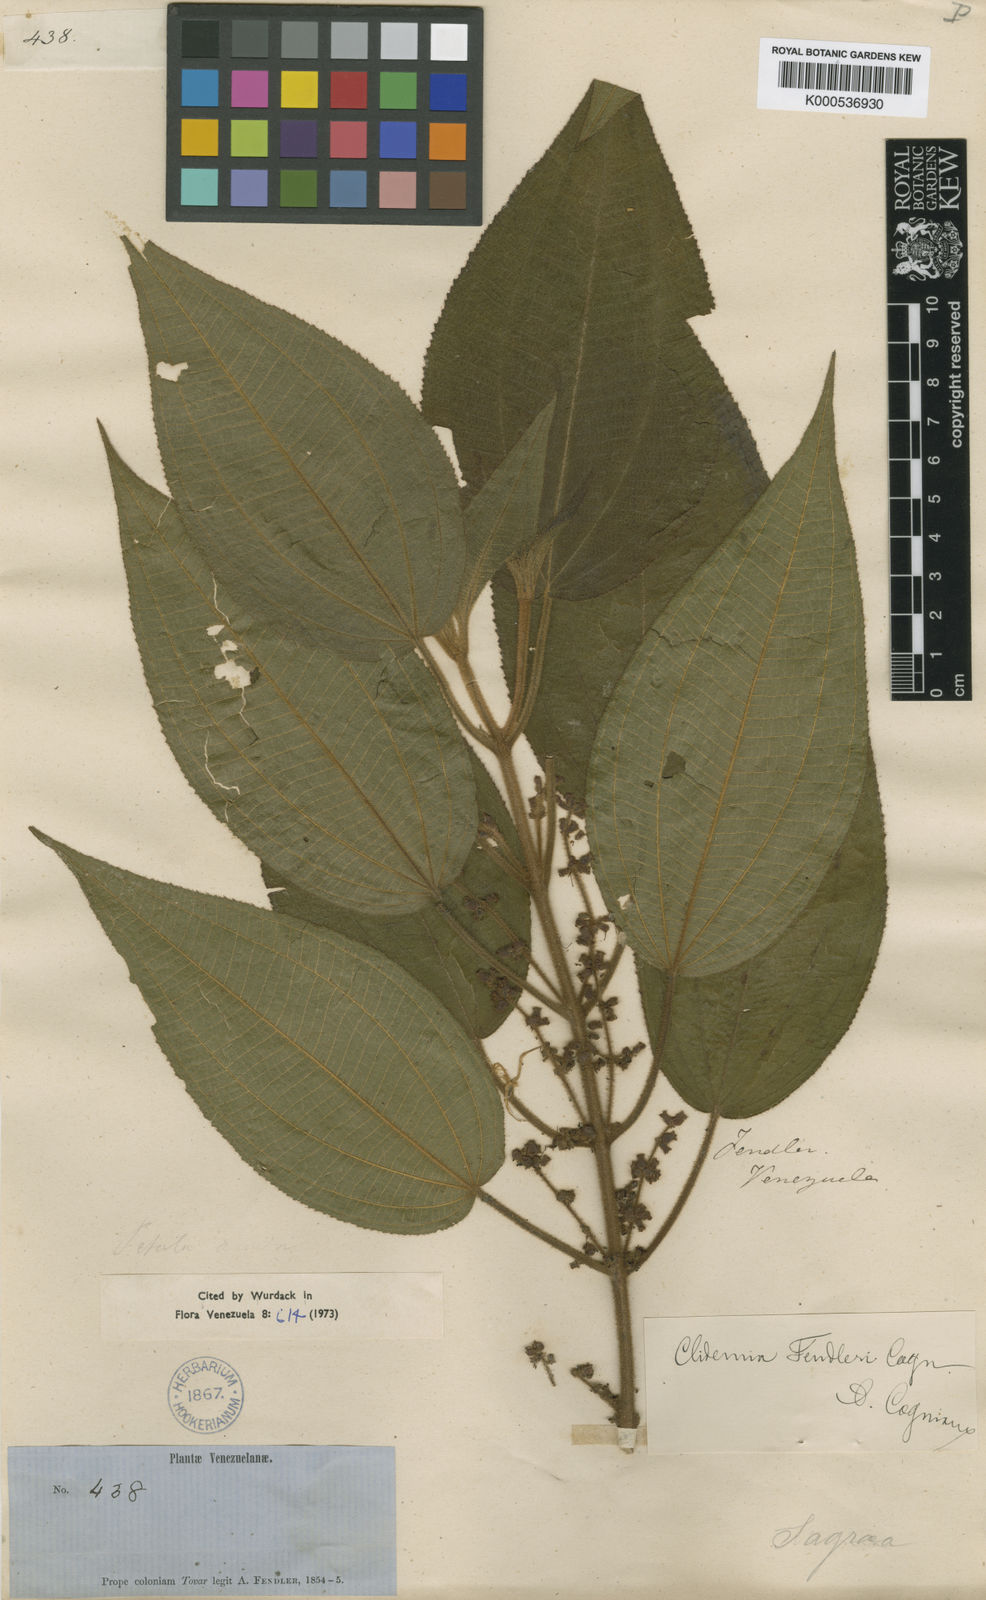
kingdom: Plantae
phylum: Tracheophyta
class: Magnoliopsida
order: Myrtales
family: Melastomataceae
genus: Miconia
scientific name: Miconia rariflora
